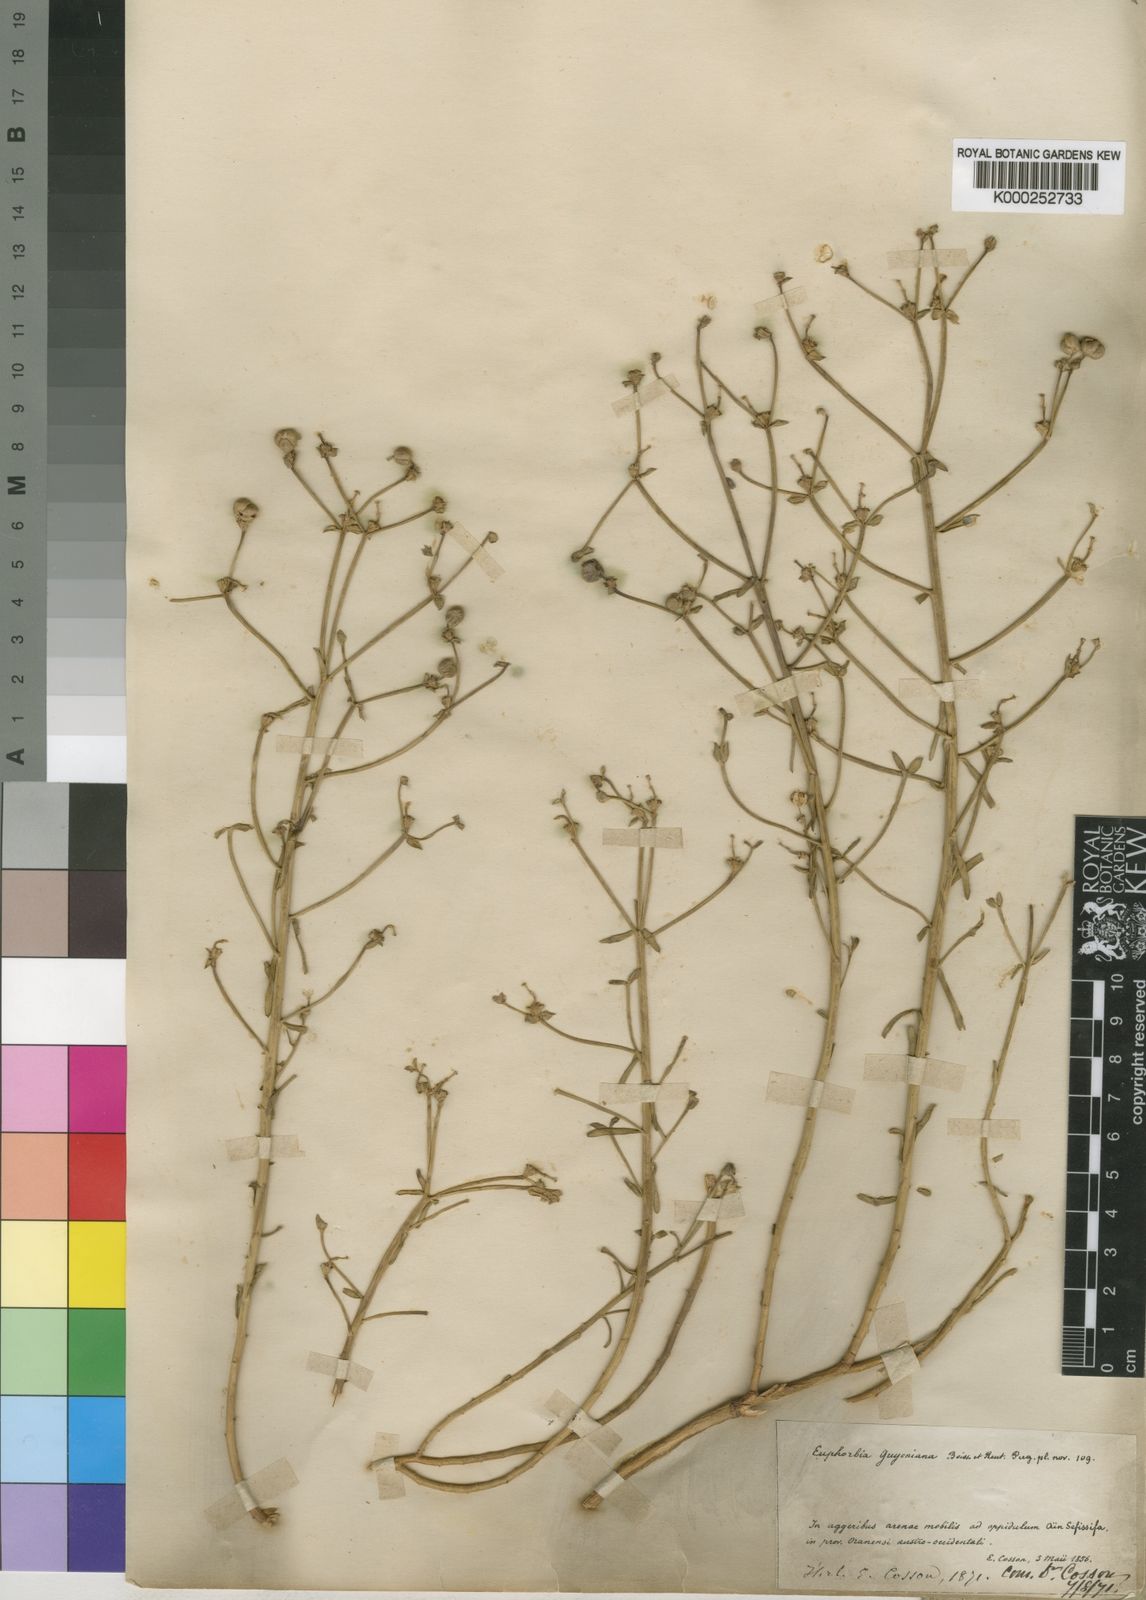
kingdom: Plantae
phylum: Tracheophyta
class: Magnoliopsida
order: Malpighiales
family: Euphorbiaceae
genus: Euphorbia
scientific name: Euphorbia guyoniana
